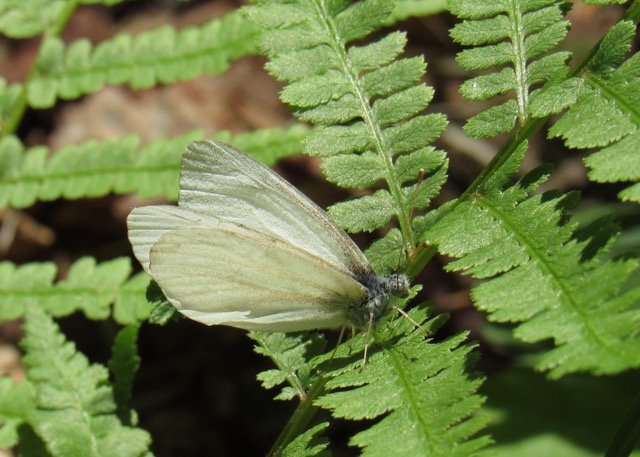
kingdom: Animalia
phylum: Arthropoda
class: Insecta
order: Lepidoptera
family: Pieridae
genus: Pieris
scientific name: Pieris virginiensis
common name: West Virginia White
